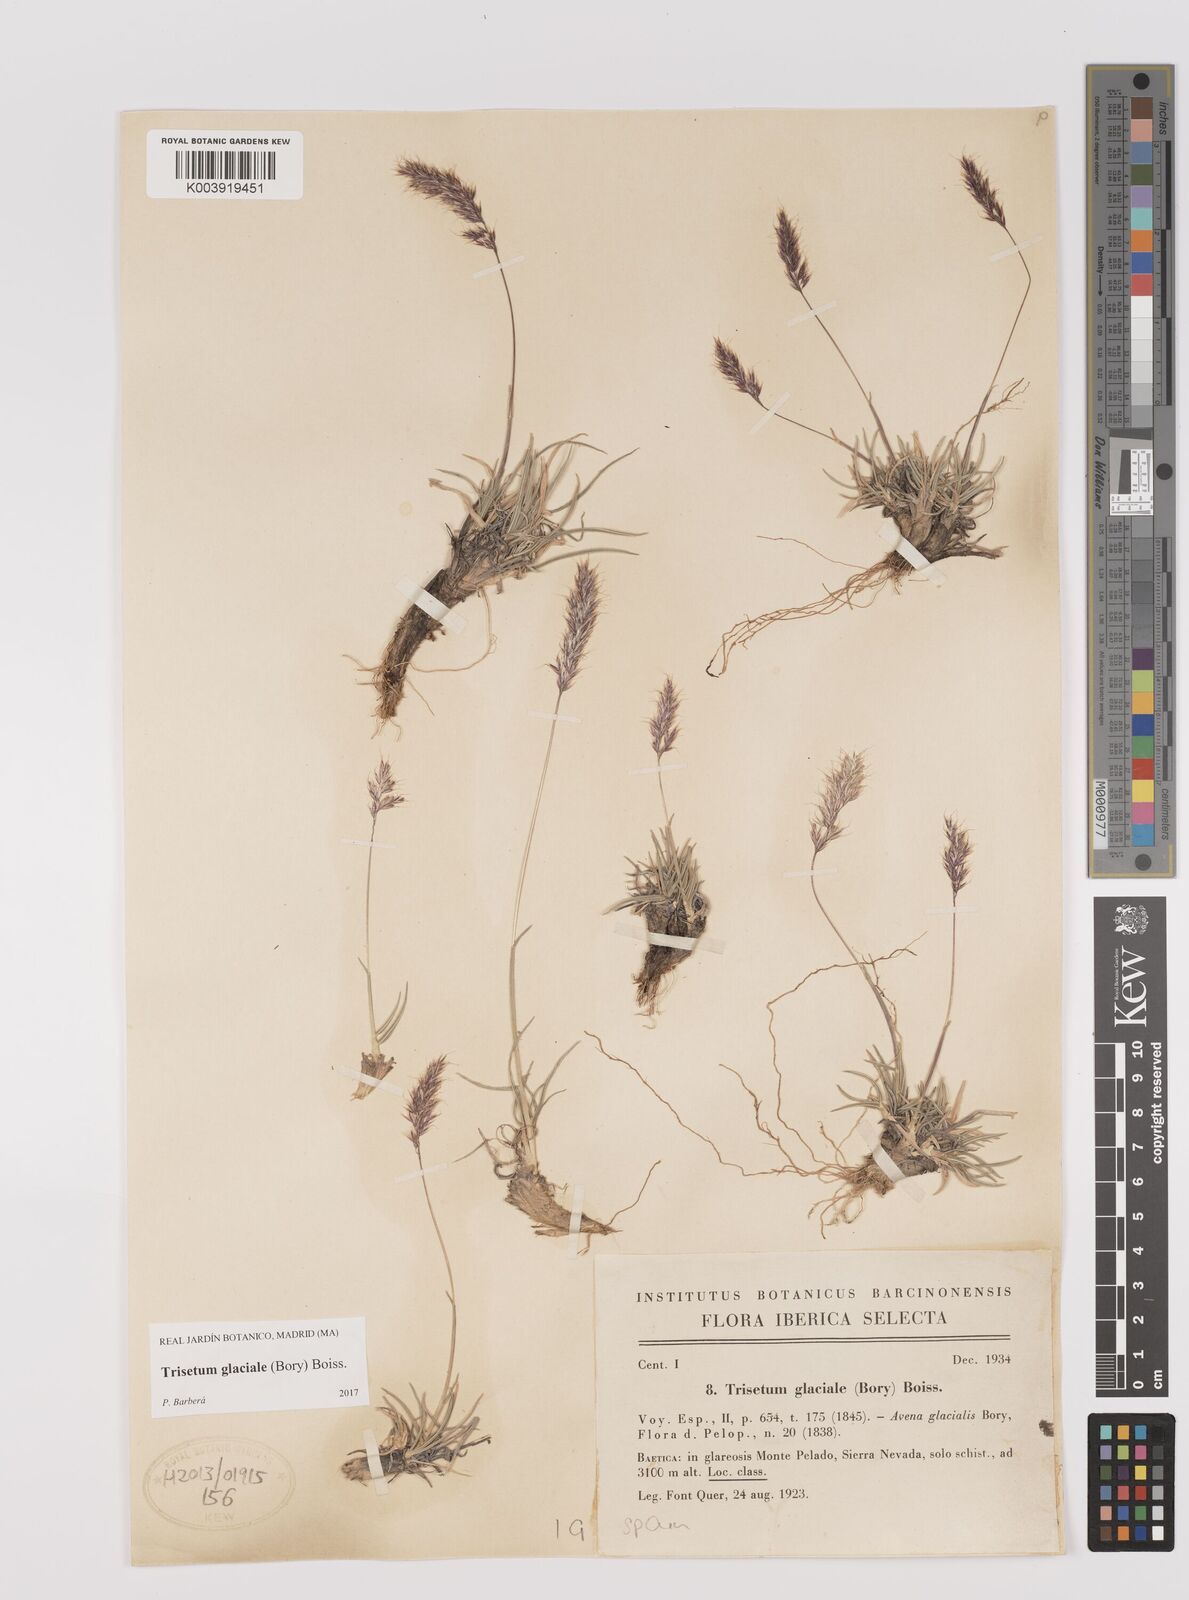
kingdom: Plantae
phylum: Tracheophyta
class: Liliopsida
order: Poales
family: Poaceae
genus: Acrospelion
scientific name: Acrospelion glaciale
